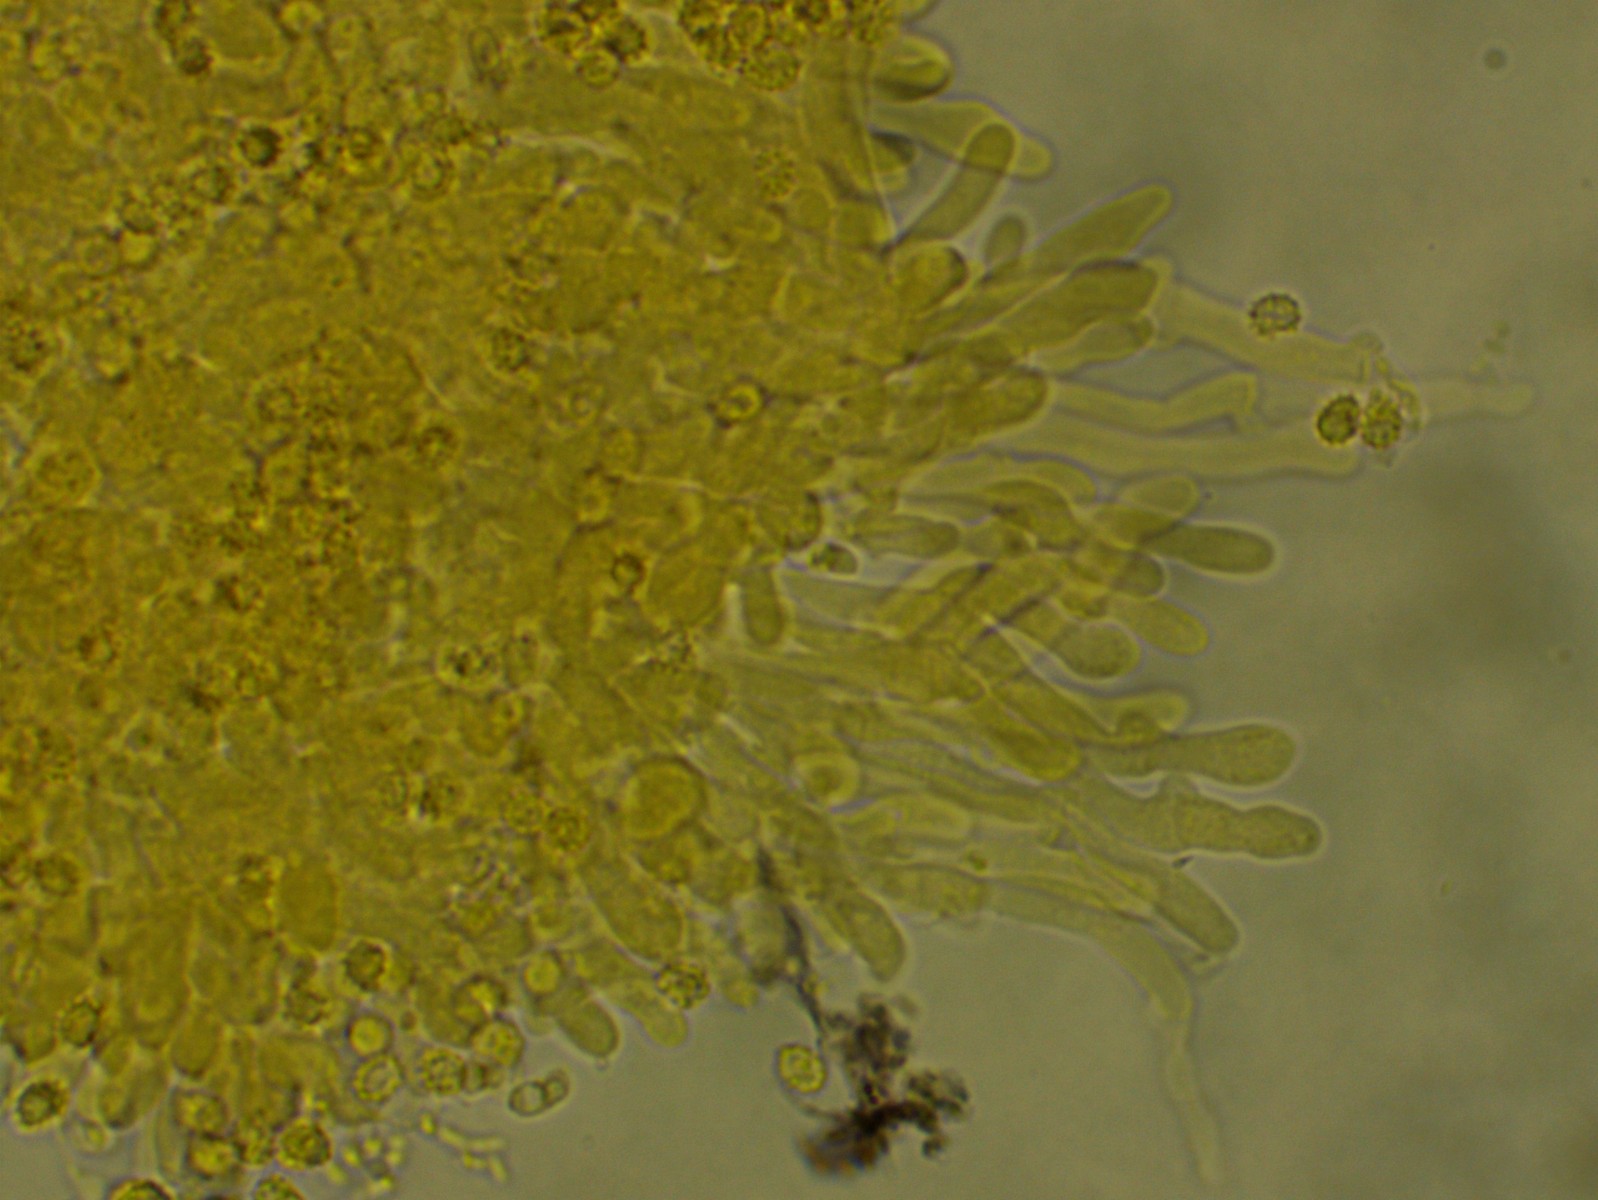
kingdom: Fungi
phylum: Basidiomycota
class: Agaricomycetes
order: Trechisporales
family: Sistotremataceae
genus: Trechispora
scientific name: Trechispora
